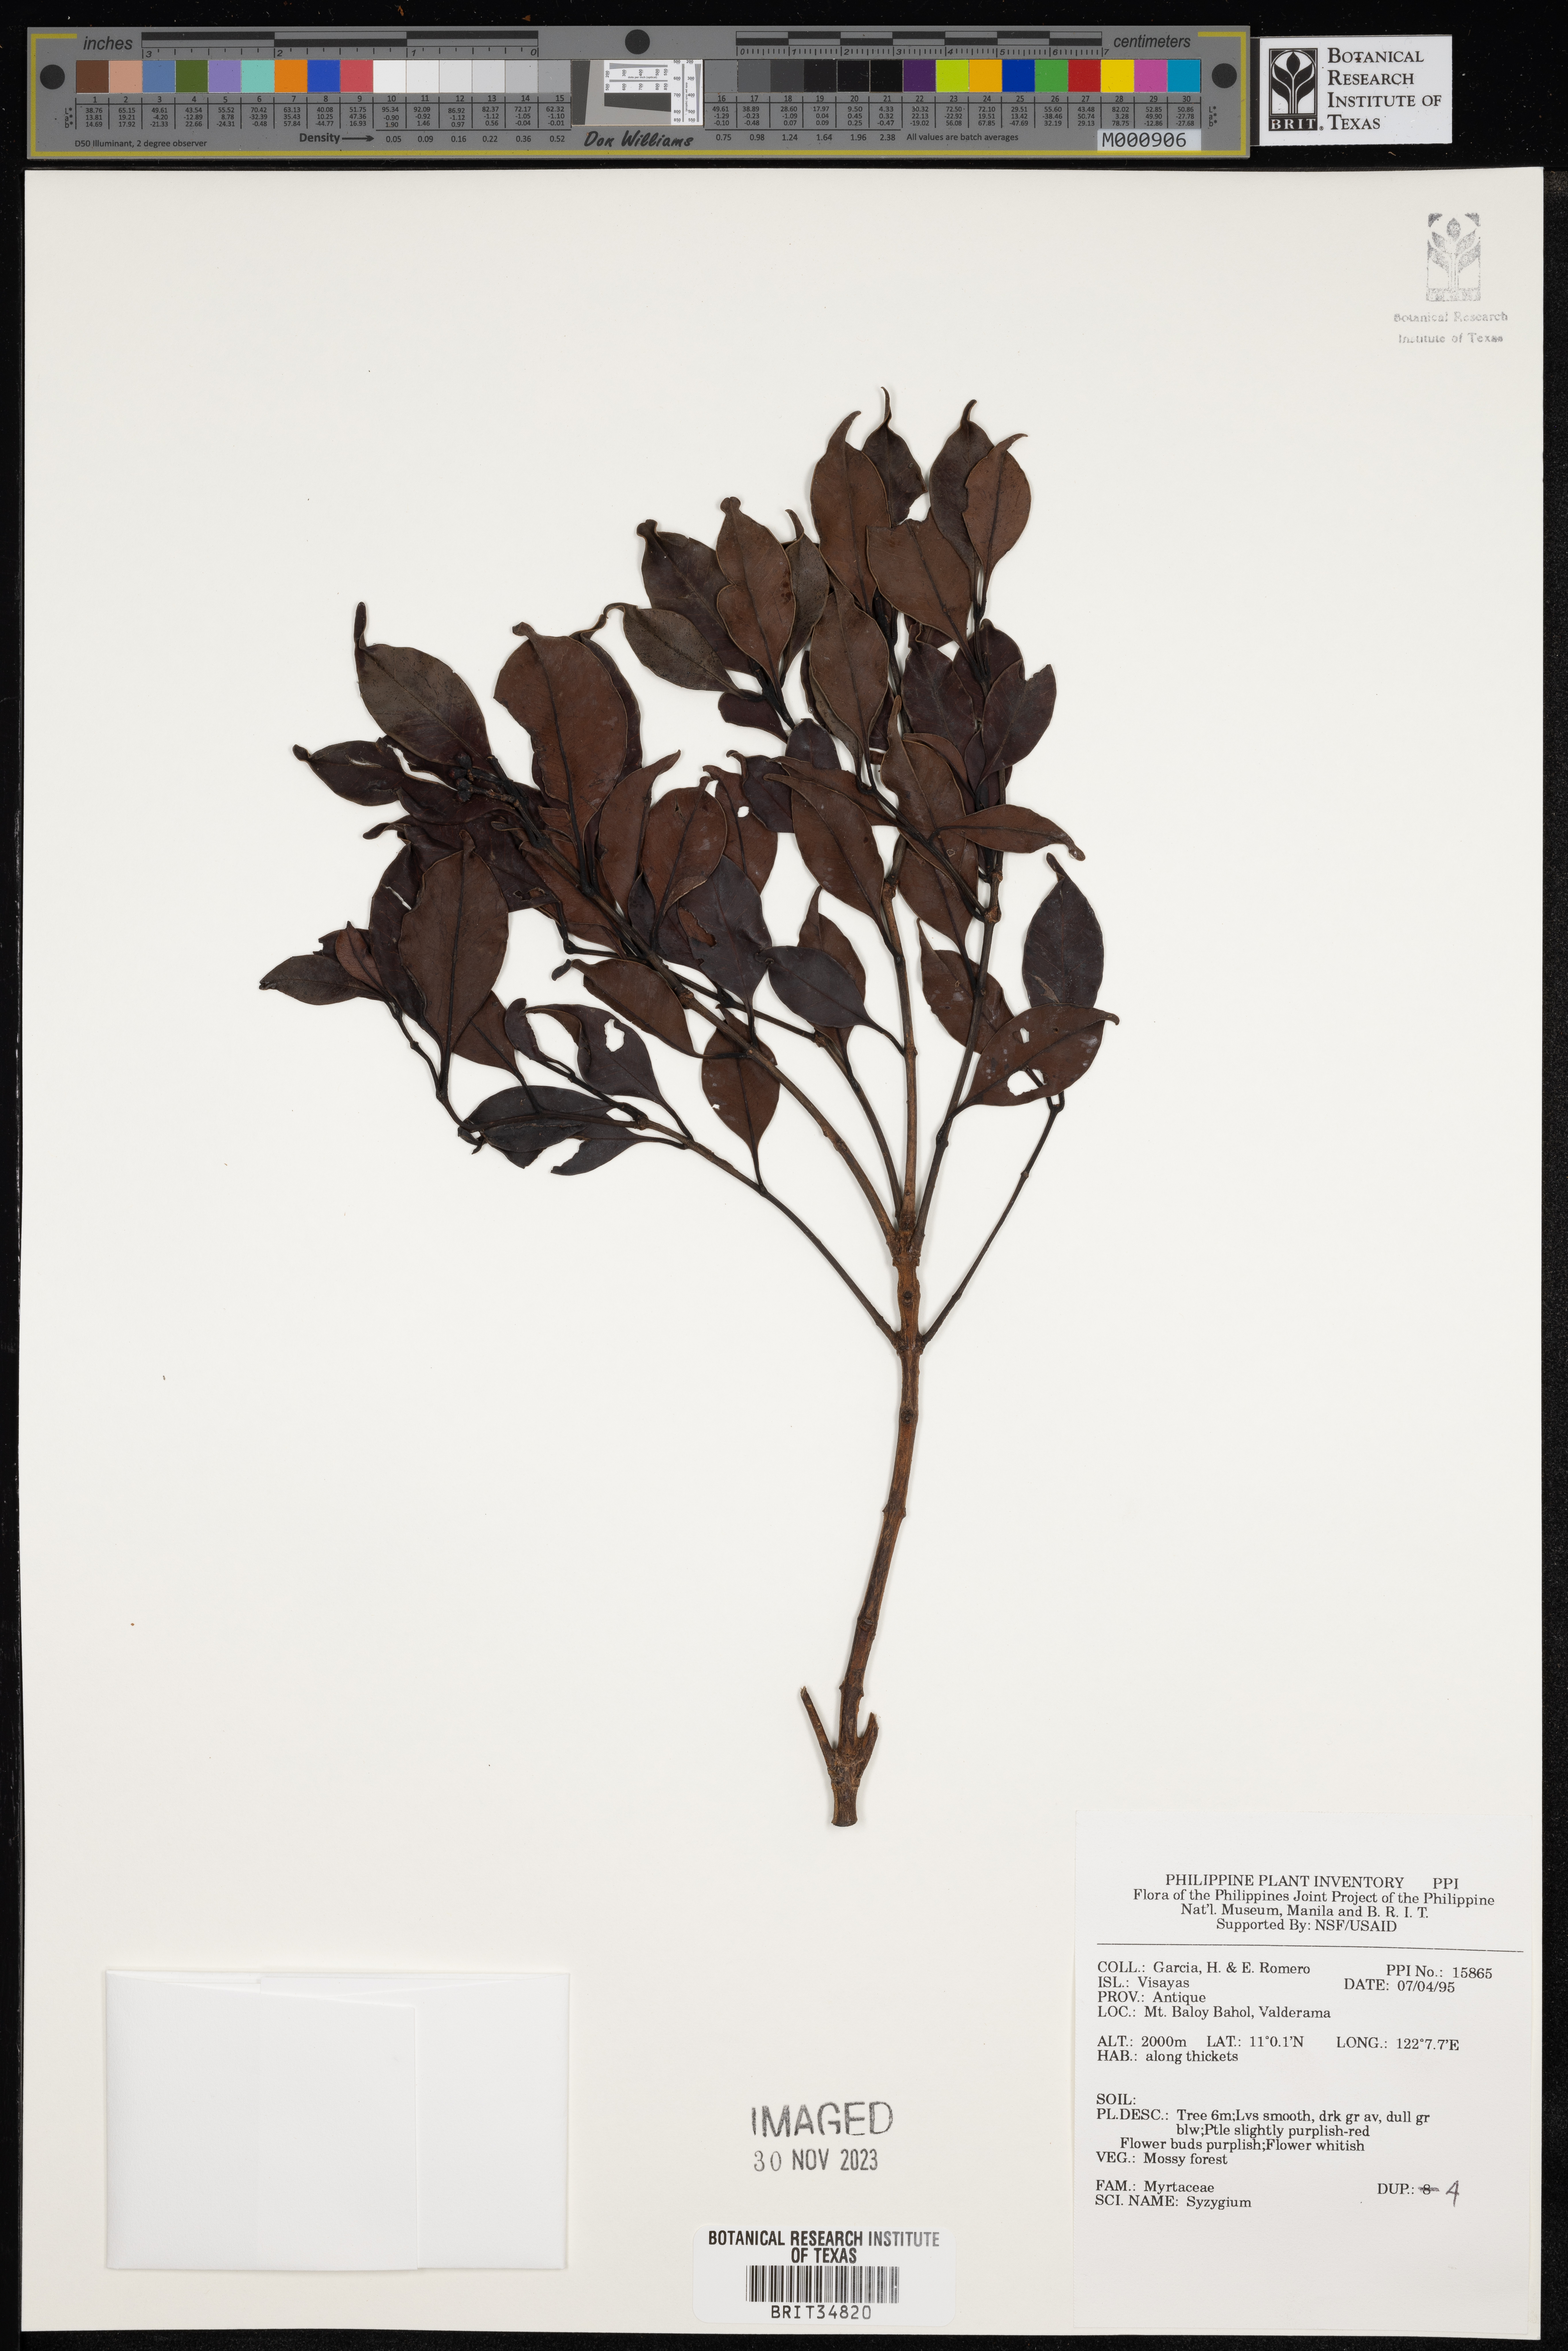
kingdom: Plantae
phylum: Tracheophyta
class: Magnoliopsida
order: Myrtales
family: Myrtaceae
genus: Syzygium
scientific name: Syzygium
